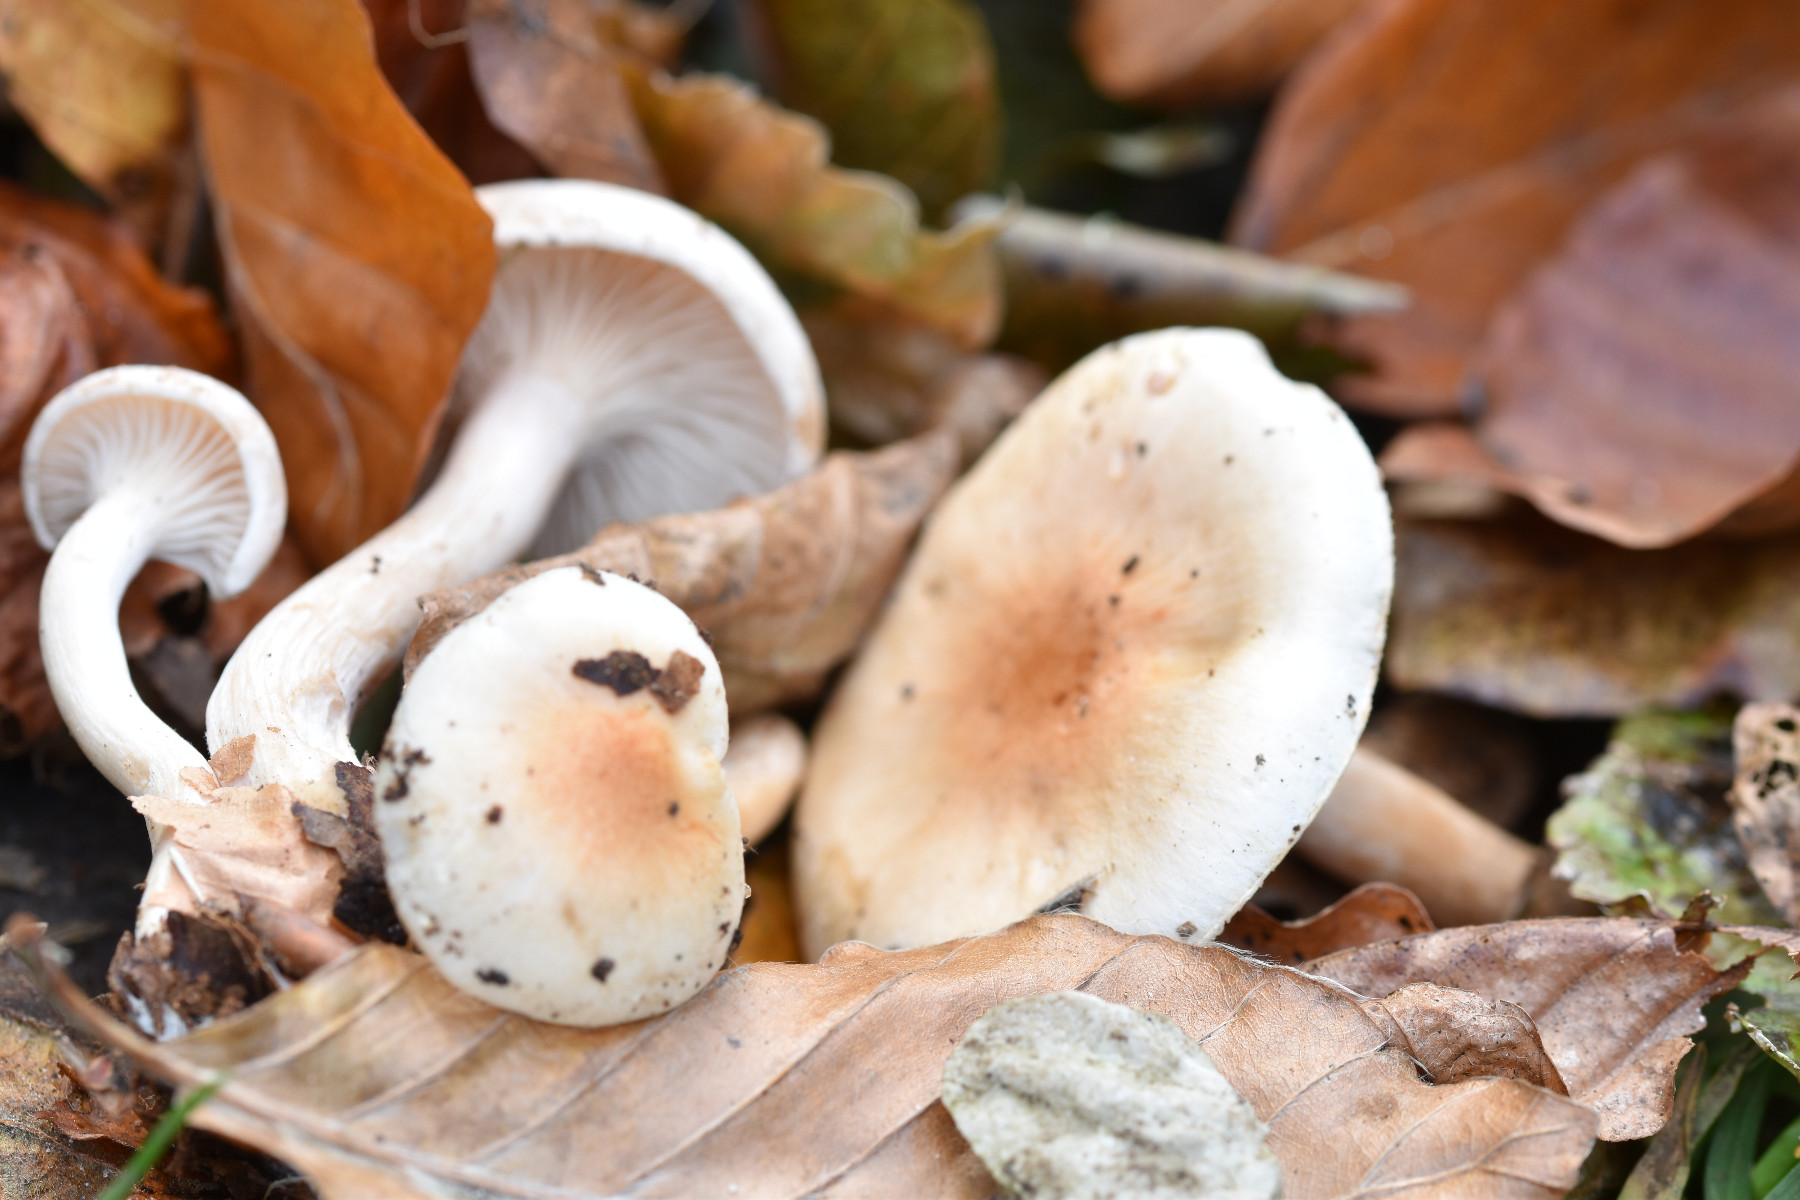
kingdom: Fungi
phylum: Basidiomycota
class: Agaricomycetes
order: Agaricales
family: Hygrophoraceae
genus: Hygrophorus
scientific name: Hygrophorus unicolor
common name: orangeøjet sneglehat
